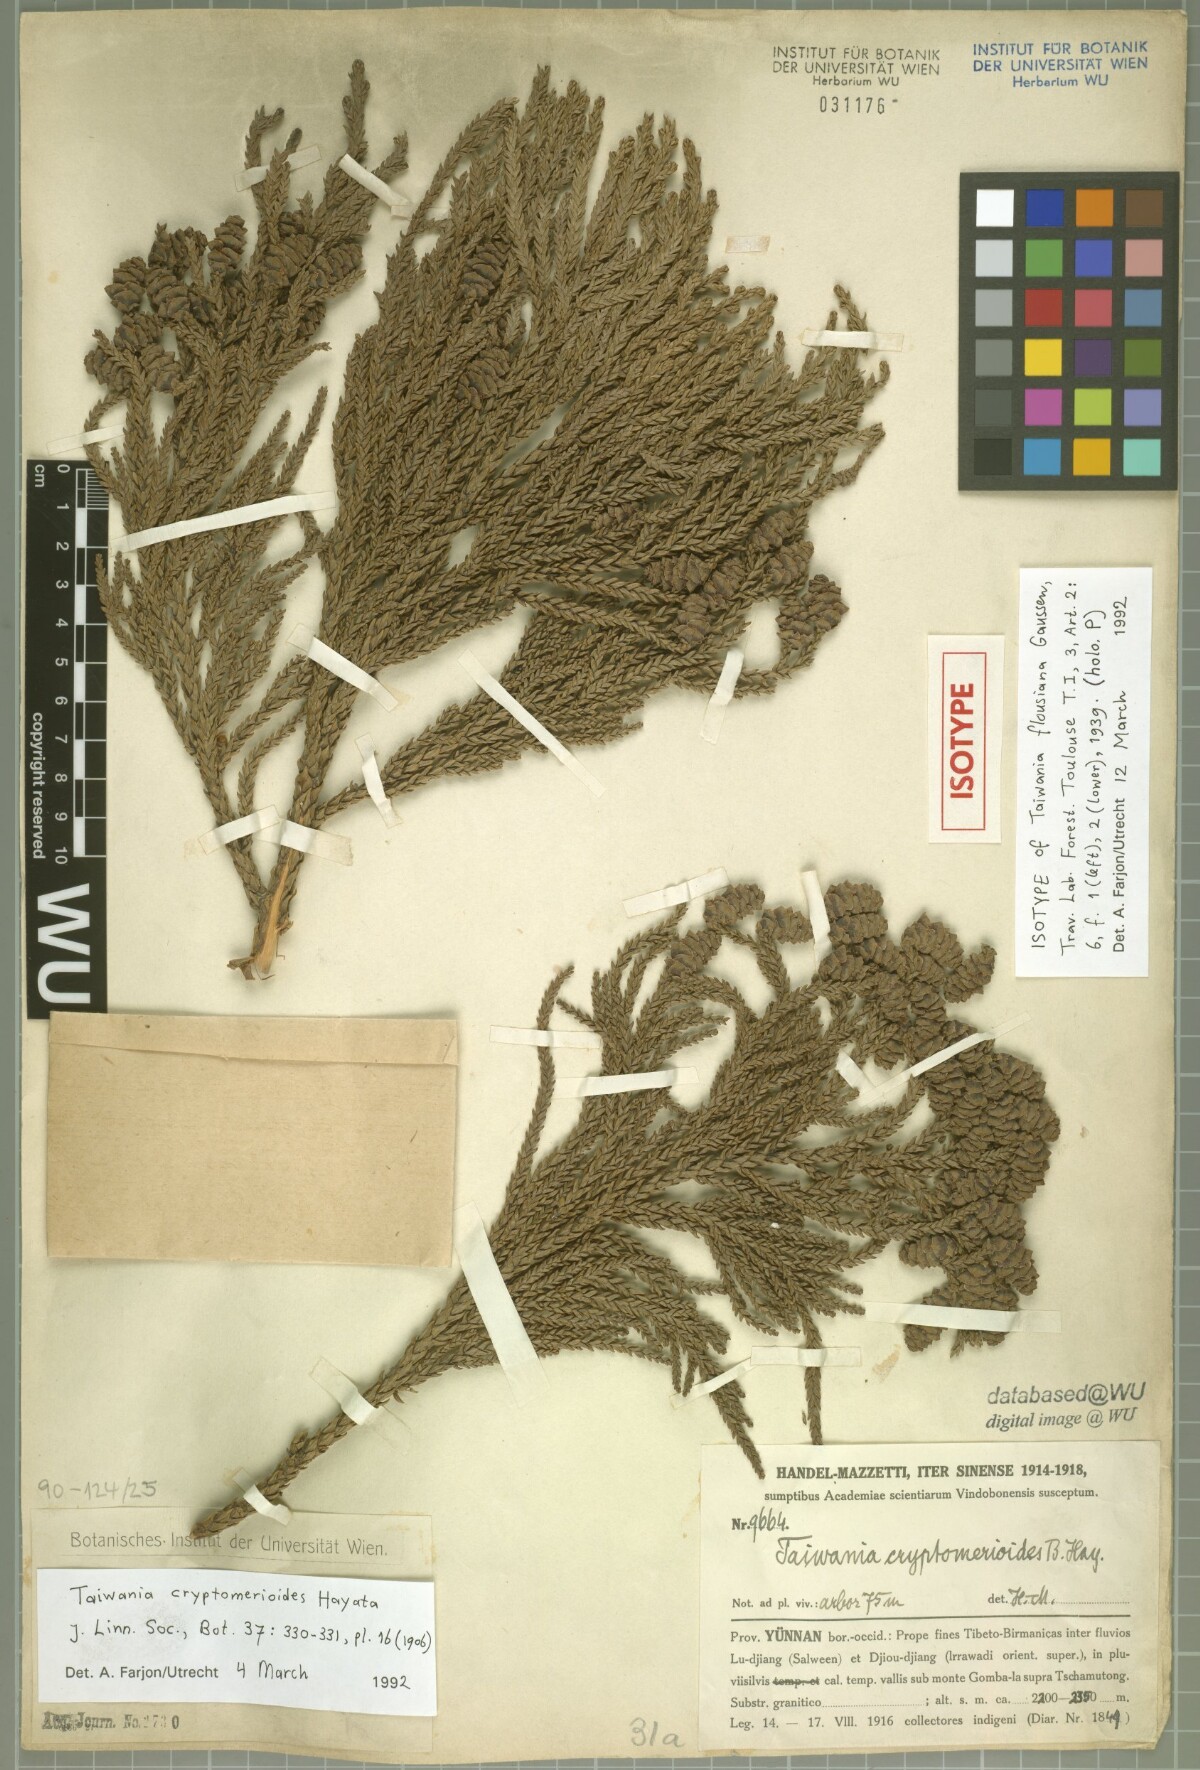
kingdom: Plantae
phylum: Tracheophyta
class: Pinopsida
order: Pinales
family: Cupressaceae
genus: Taiwania
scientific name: Taiwania cryptomerioides
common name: Coffin tree
